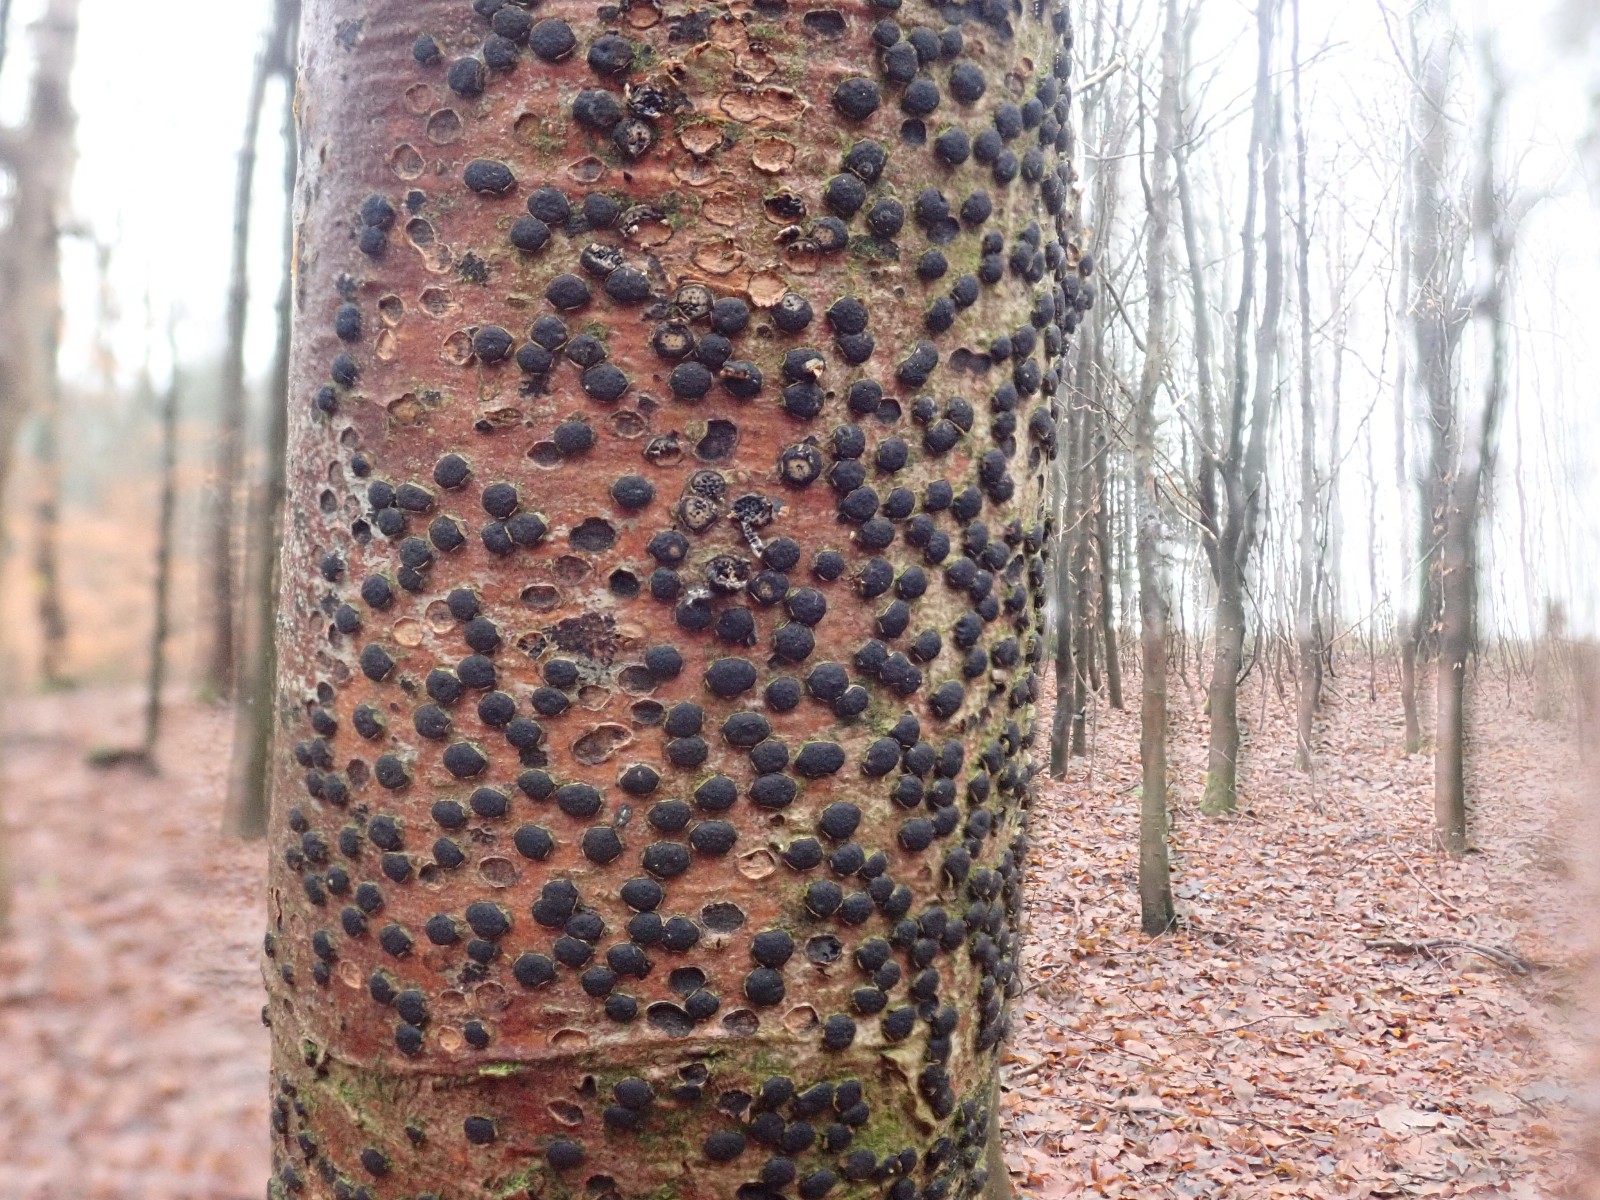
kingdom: Fungi
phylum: Ascomycota
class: Sordariomycetes
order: Xylariales
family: Diatrypaceae
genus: Diatrype
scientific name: Diatrype disciformis
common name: kant-kulskorpe
